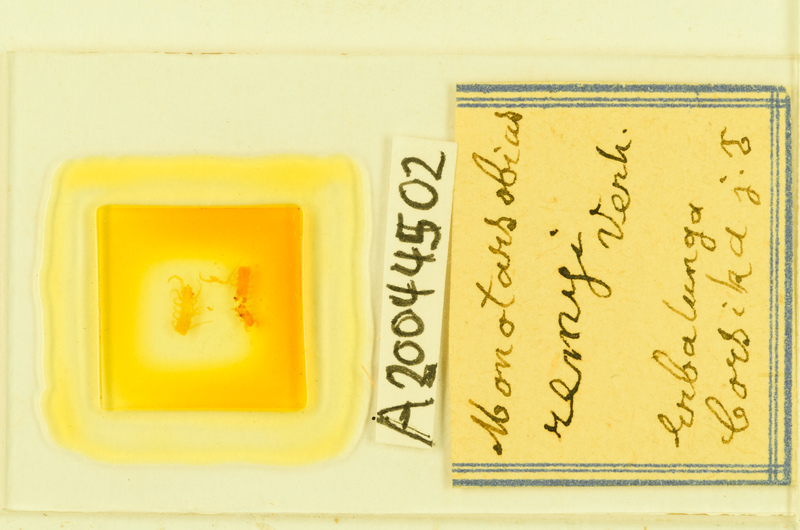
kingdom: Animalia
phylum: Arthropoda
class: Chilopoda
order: Lithobiomorpha
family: Lithobiidae
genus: Monotarsobius
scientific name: Monotarsobius
